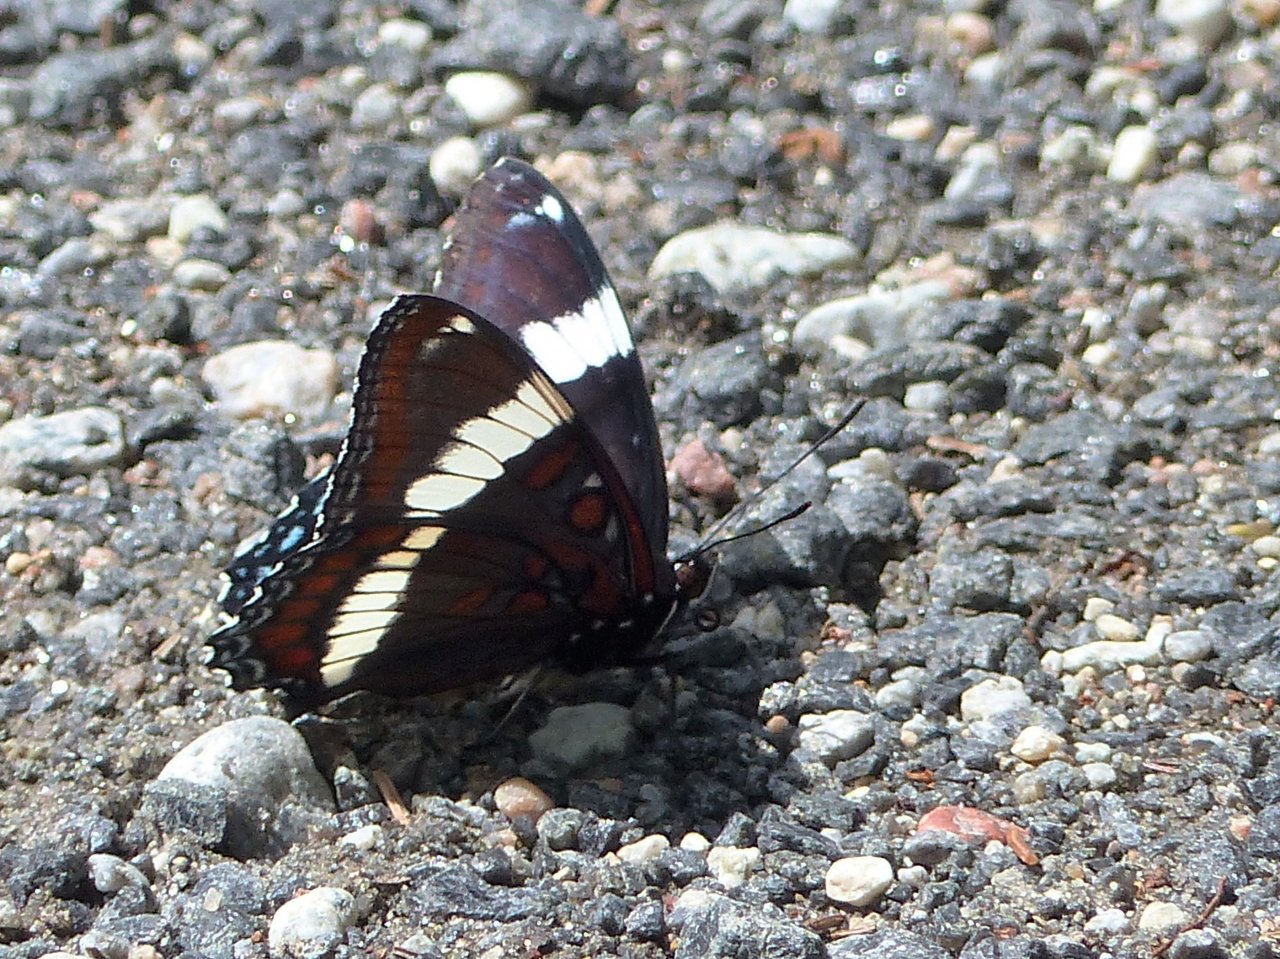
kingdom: Animalia
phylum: Arthropoda
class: Insecta
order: Lepidoptera
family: Nymphalidae
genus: Limenitis
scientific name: Limenitis arthemis
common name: Red-spotted Admiral
